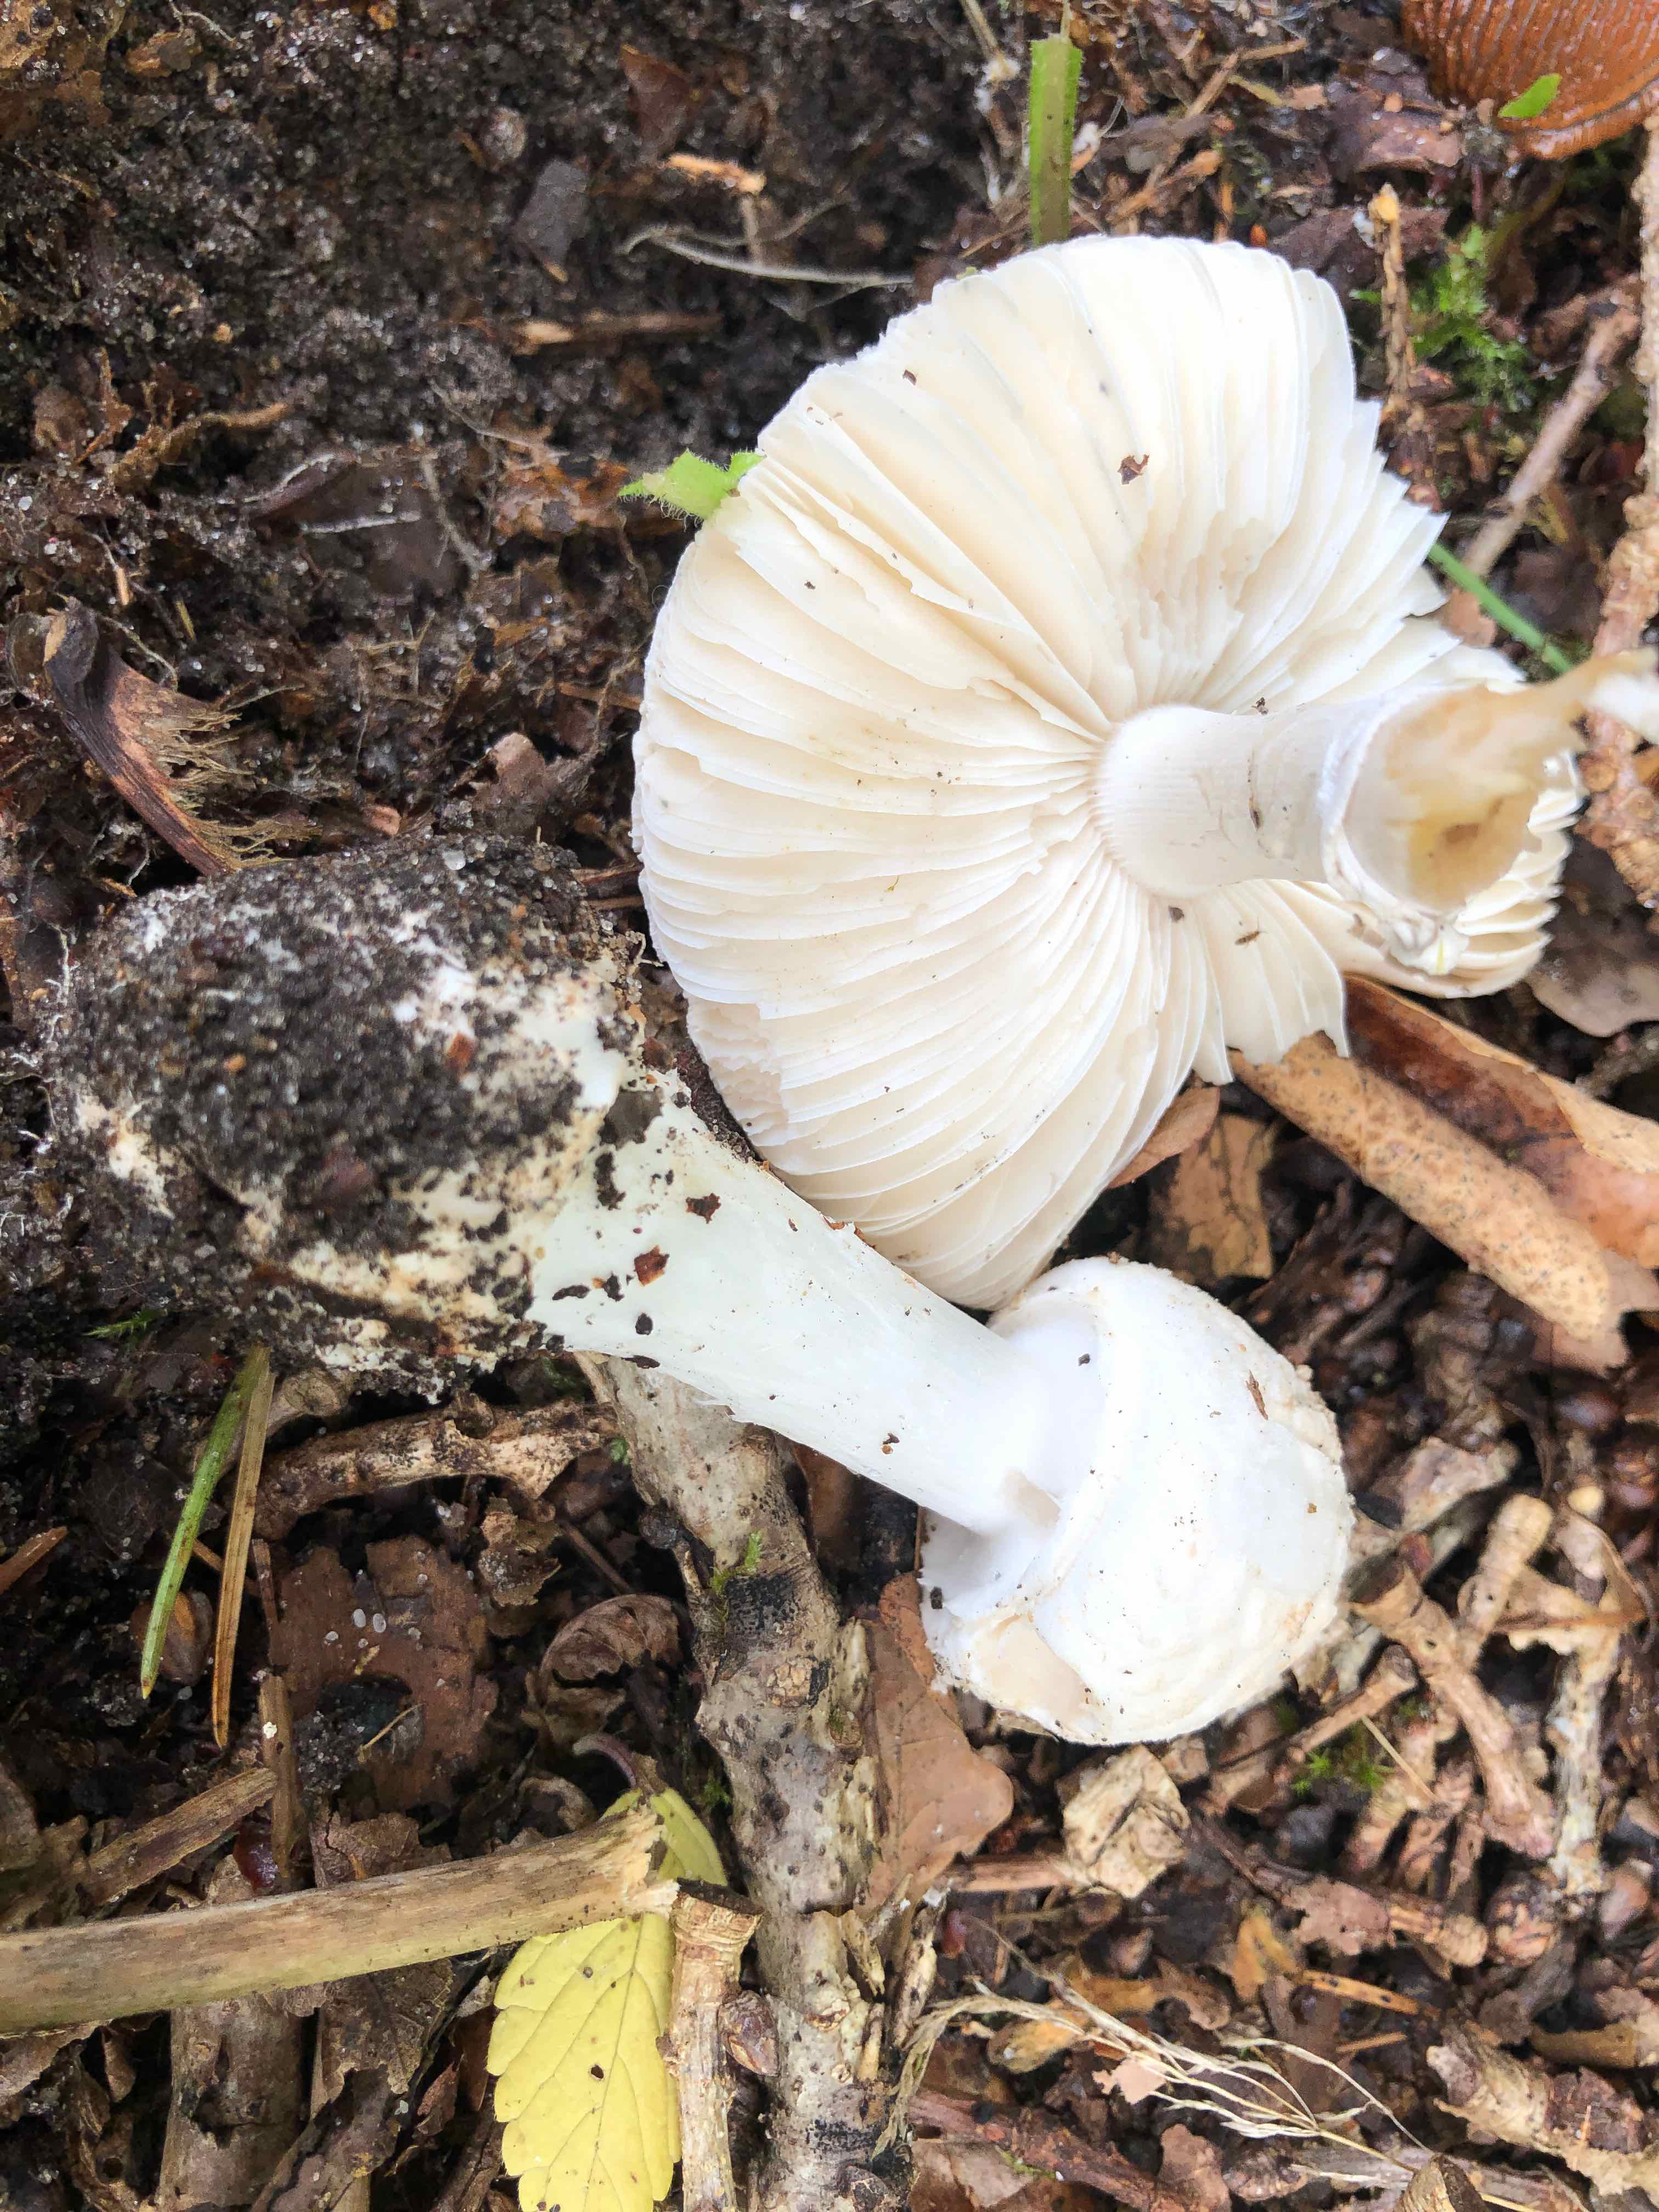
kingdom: Fungi
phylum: Basidiomycota
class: Agaricomycetes
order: Agaricales
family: Amanitaceae
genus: Amanita
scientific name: Amanita citrina
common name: kugleknoldet fluesvamp
